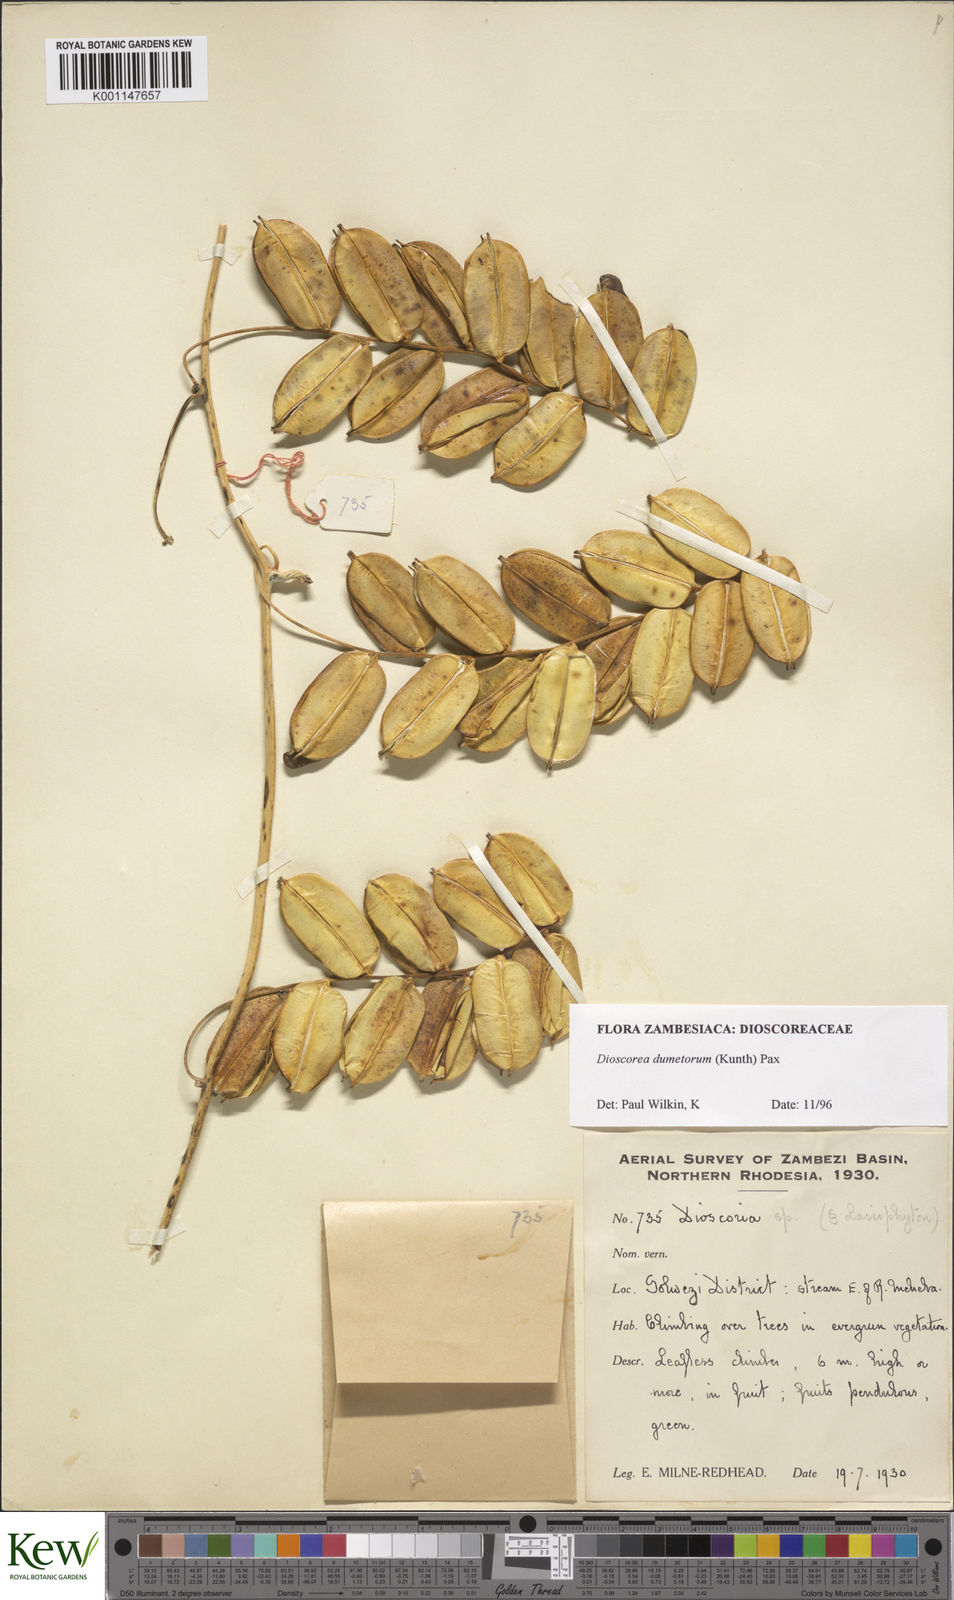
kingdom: Plantae
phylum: Tracheophyta
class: Liliopsida
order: Dioscoreales
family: Dioscoreaceae
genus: Dioscorea
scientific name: Dioscorea dumetorum
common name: African bitter yam
